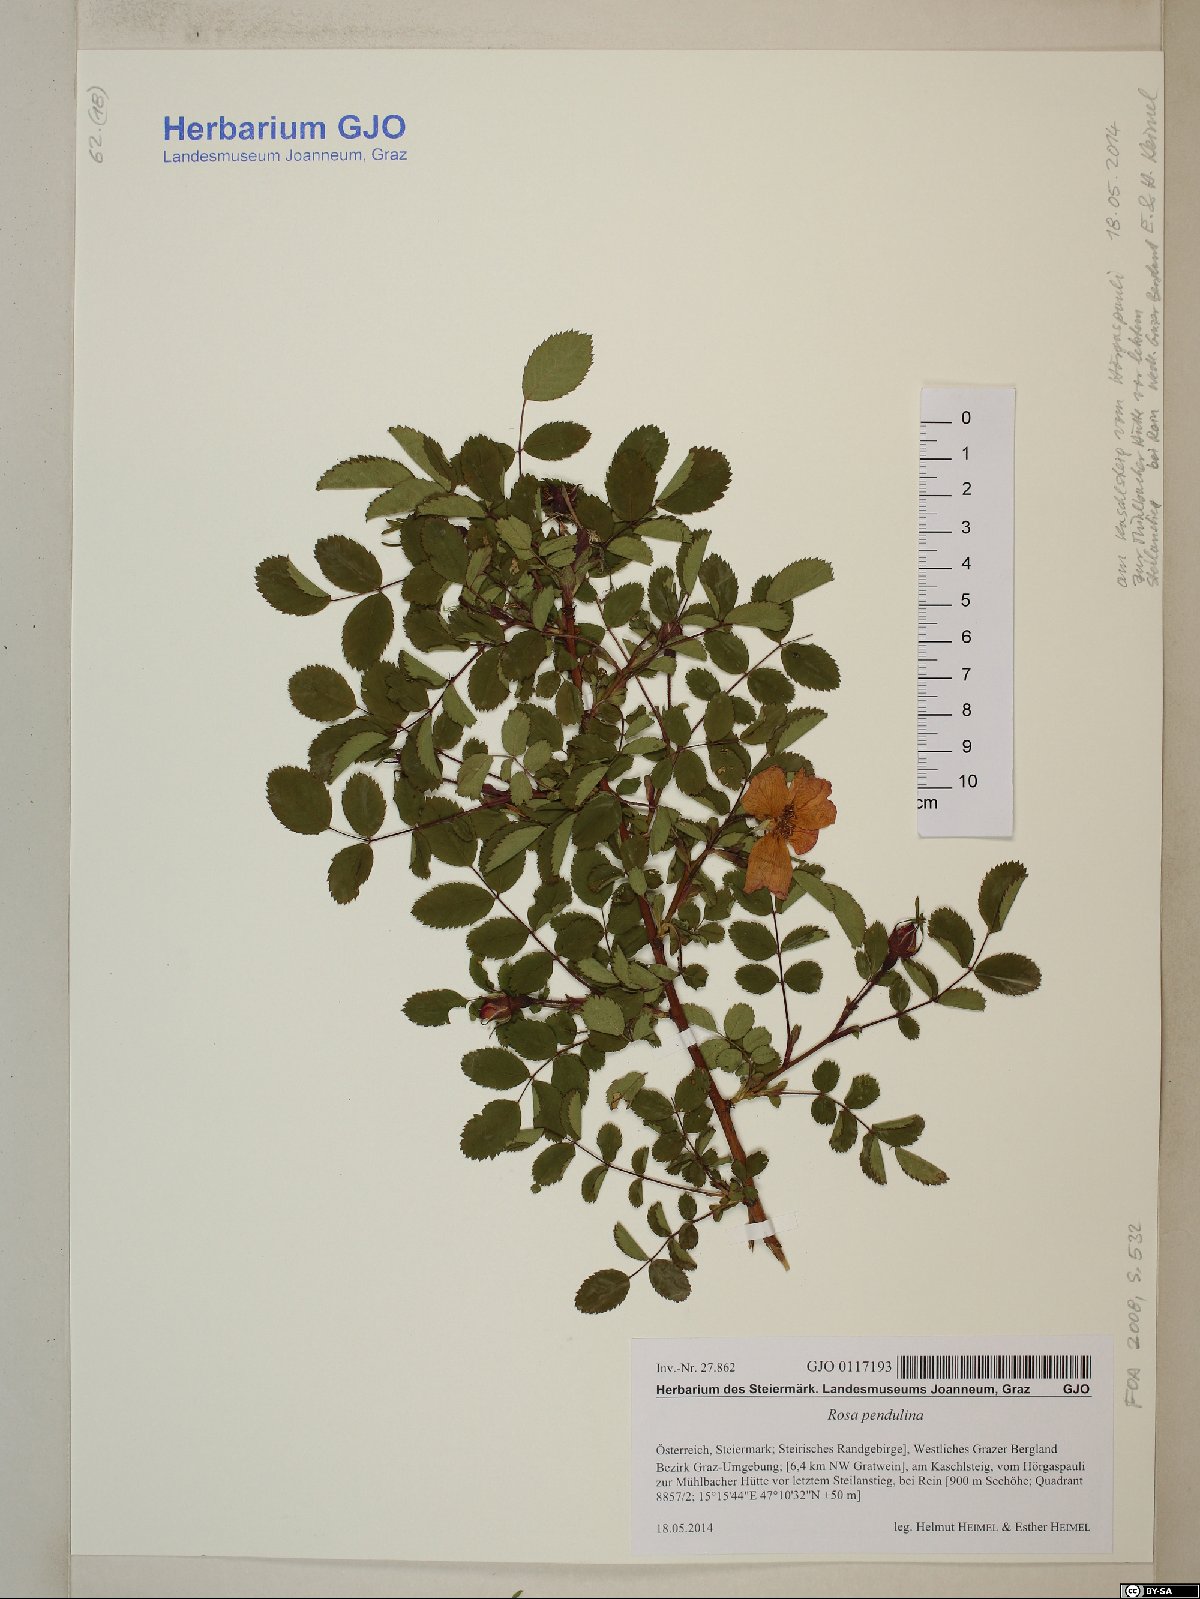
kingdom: Plantae
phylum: Tracheophyta
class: Magnoliopsida
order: Rosales
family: Rosaceae
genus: Rosa
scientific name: Rosa pendulina
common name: Alpine rose
